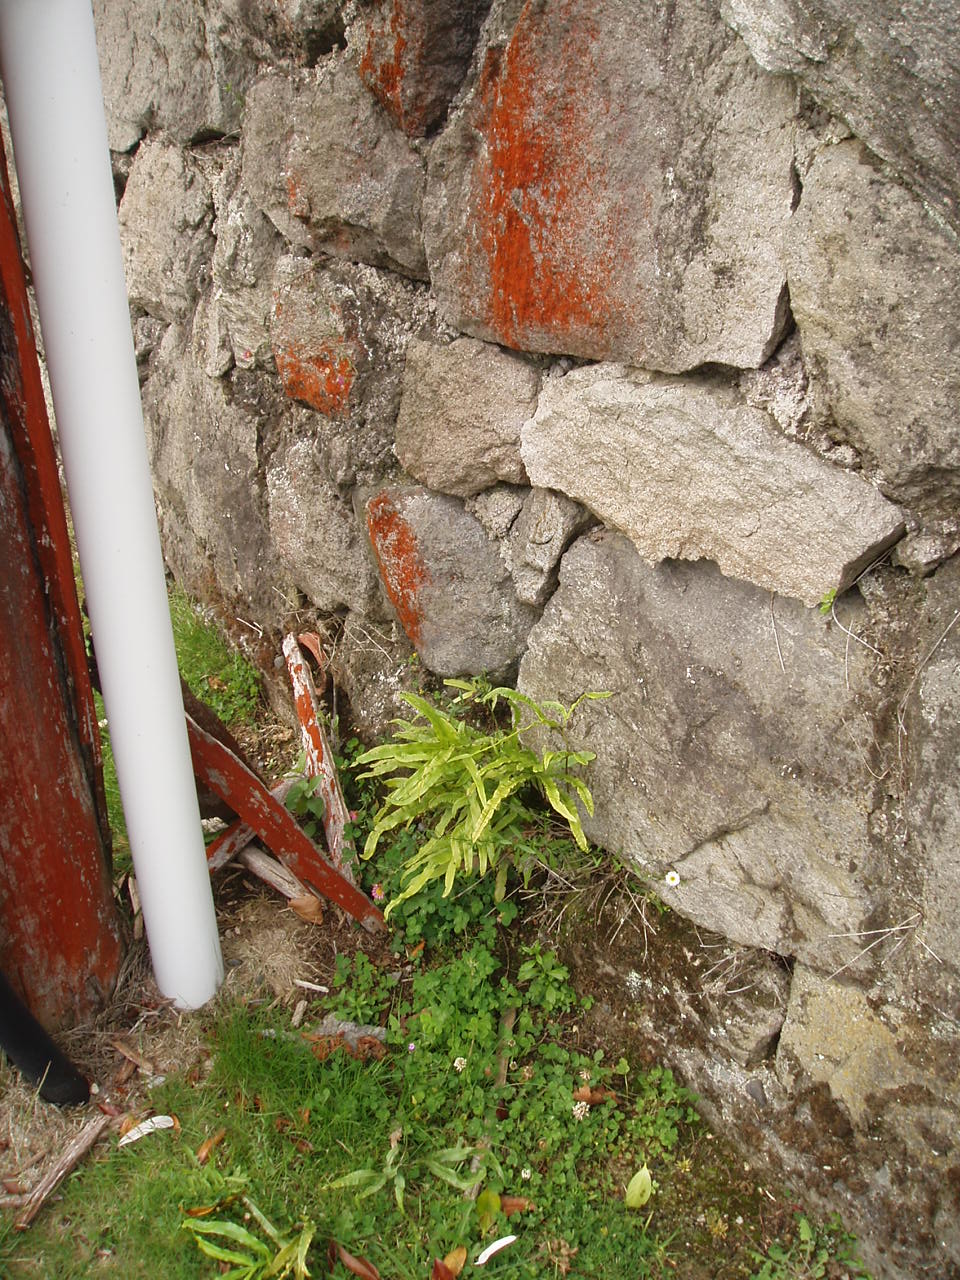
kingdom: Plantae
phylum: Tracheophyta
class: Polypodiopsida
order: Polypodiales
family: Pteridaceae
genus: Pteris
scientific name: Pteris cretica
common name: Ribbon fern
